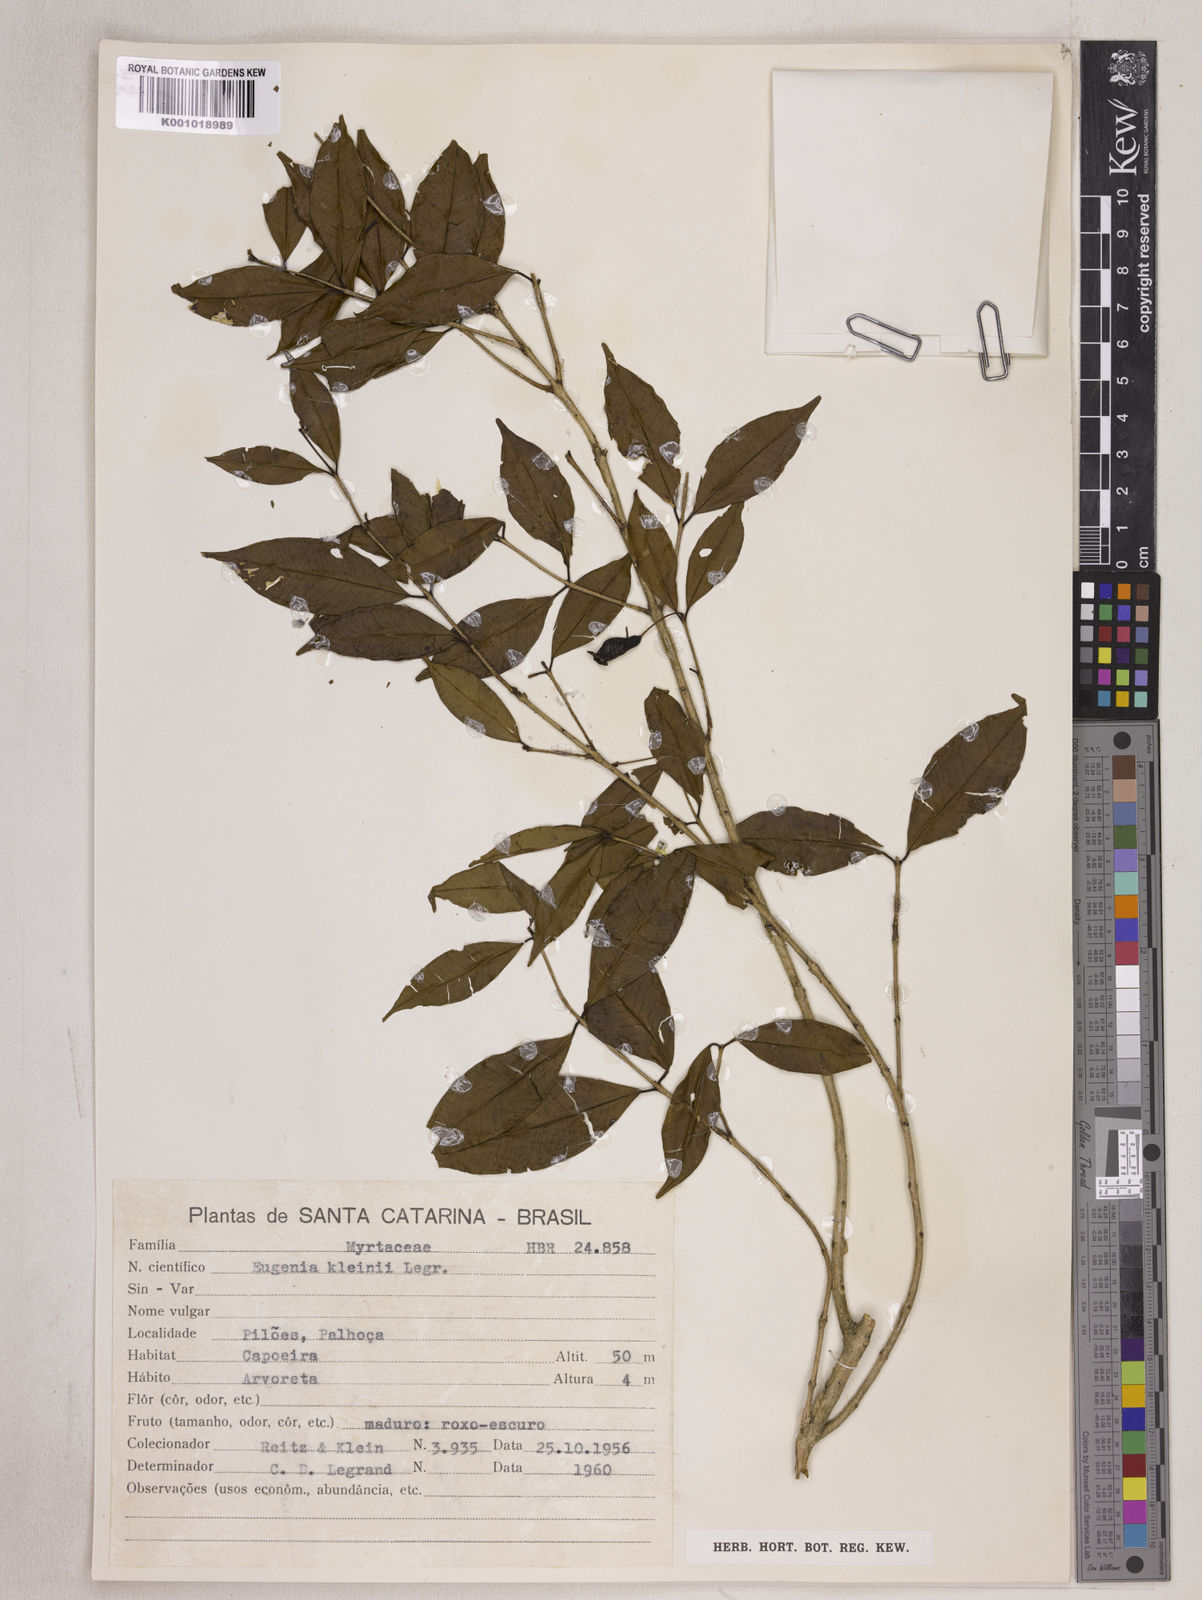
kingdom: Plantae
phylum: Tracheophyta
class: Magnoliopsida
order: Myrtales
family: Myrtaceae
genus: Eugenia
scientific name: Eugenia kleinii
